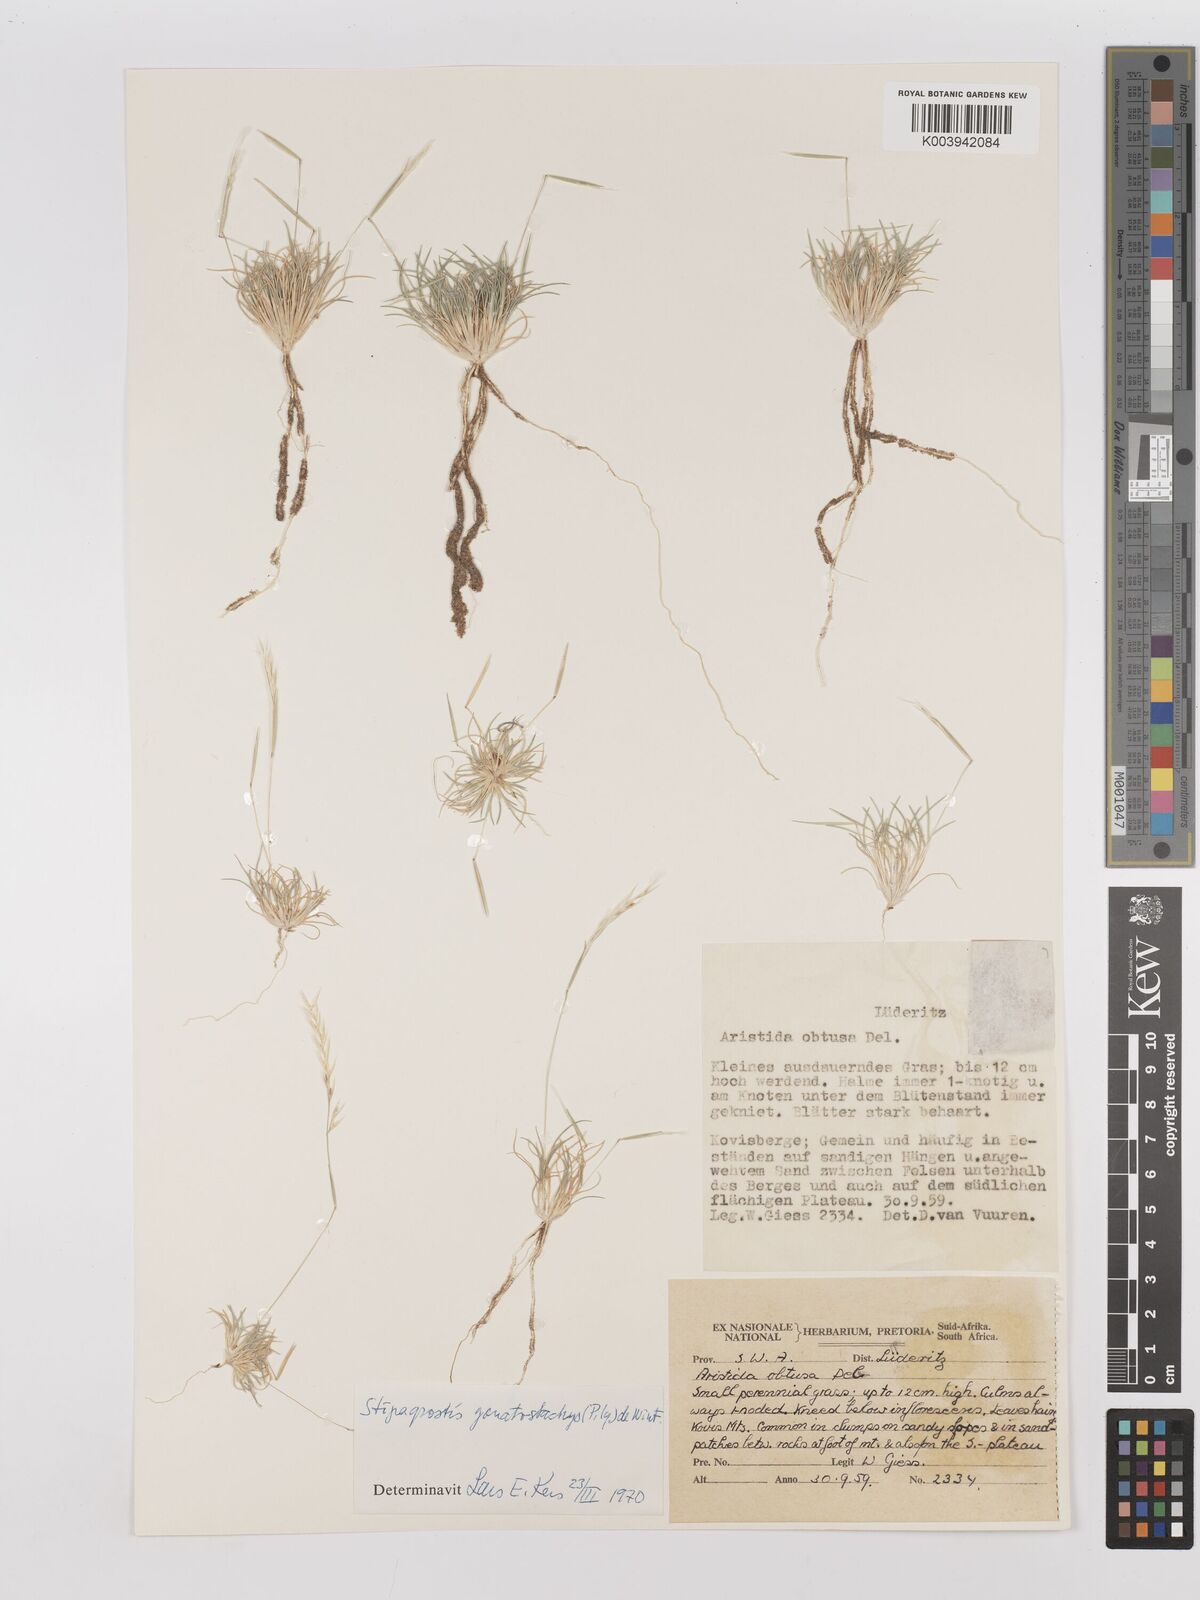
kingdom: Plantae
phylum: Tracheophyta
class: Liliopsida
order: Poales
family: Poaceae
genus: Stipagrostis
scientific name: Stipagrostis gonatostachys
